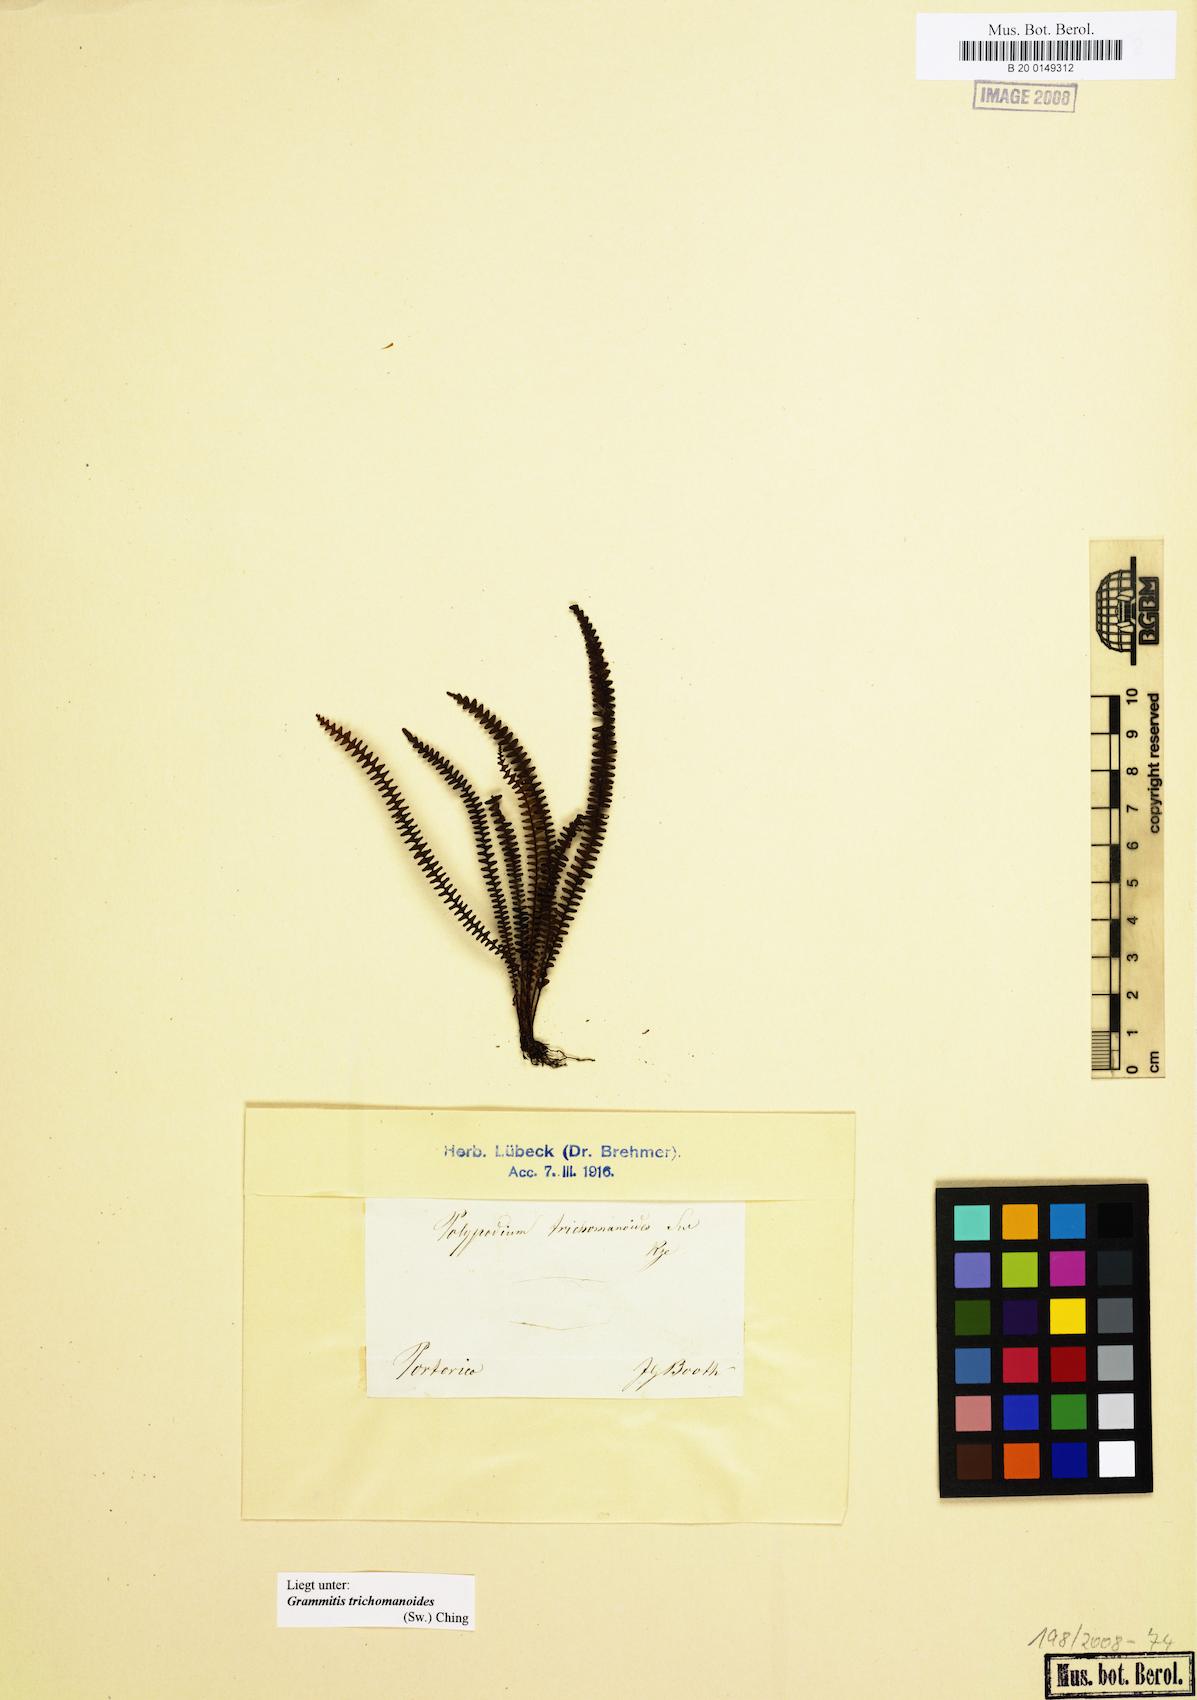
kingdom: Plantae
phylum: Tracheophyta
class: Polypodiopsida
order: Polypodiales
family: Polypodiaceae
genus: Moranopteris
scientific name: Moranopteris taenifolia
